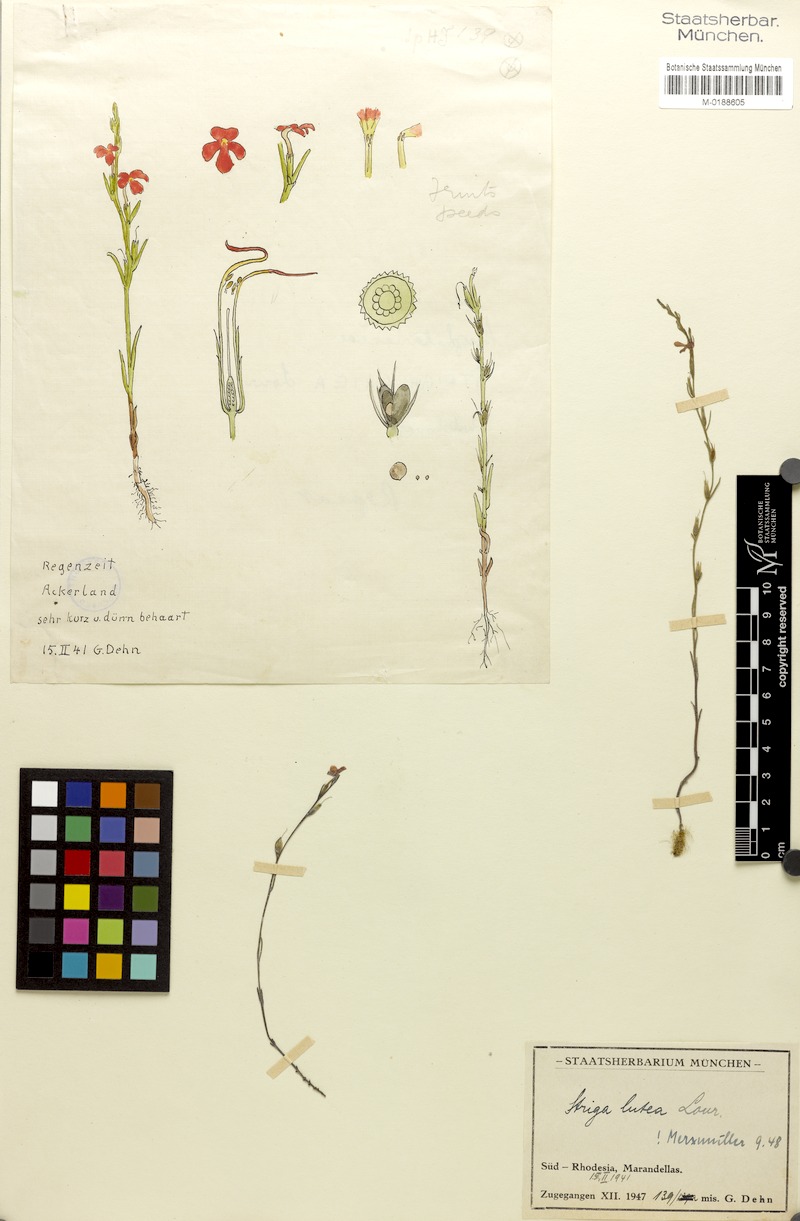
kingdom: Plantae
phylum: Tracheophyta
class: Magnoliopsida
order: Lamiales
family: Orobanchaceae
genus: Striga
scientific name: Striga lutea
